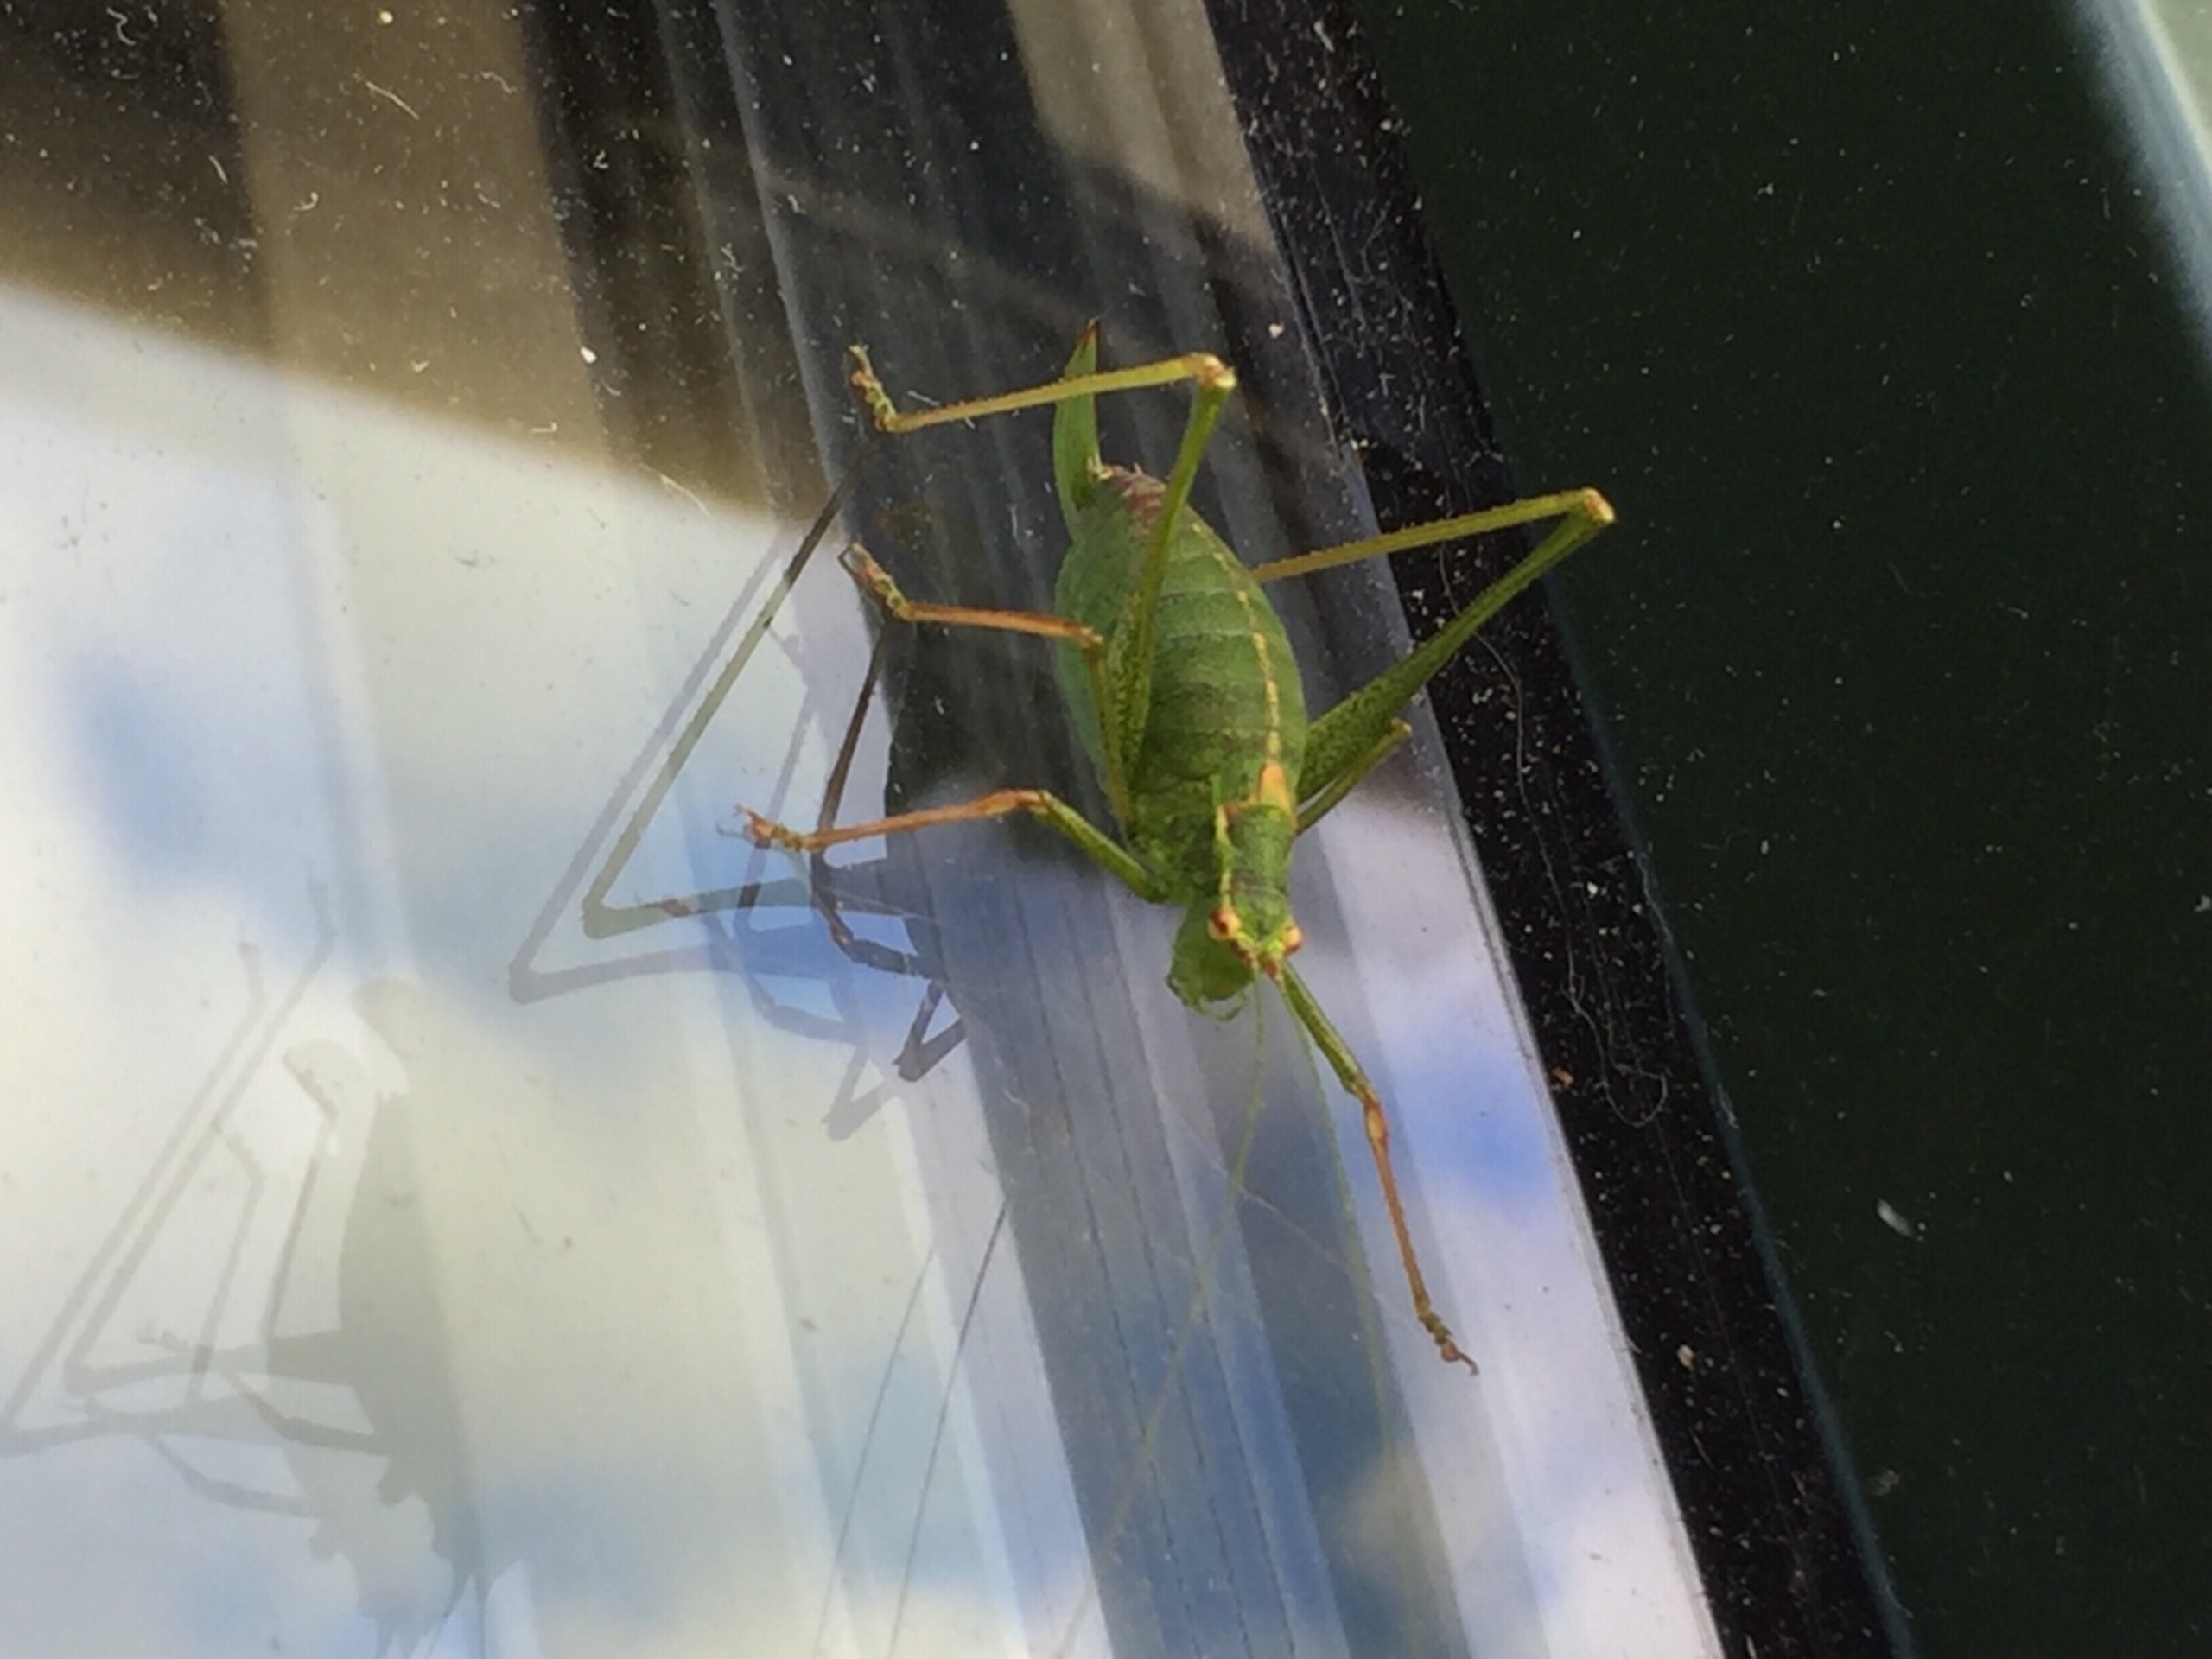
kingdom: Animalia
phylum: Arthropoda
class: Insecta
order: Orthoptera
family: Tettigoniidae
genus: Leptophyes
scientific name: Leptophyes punctatissima
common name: Krumknivgræshoppe
